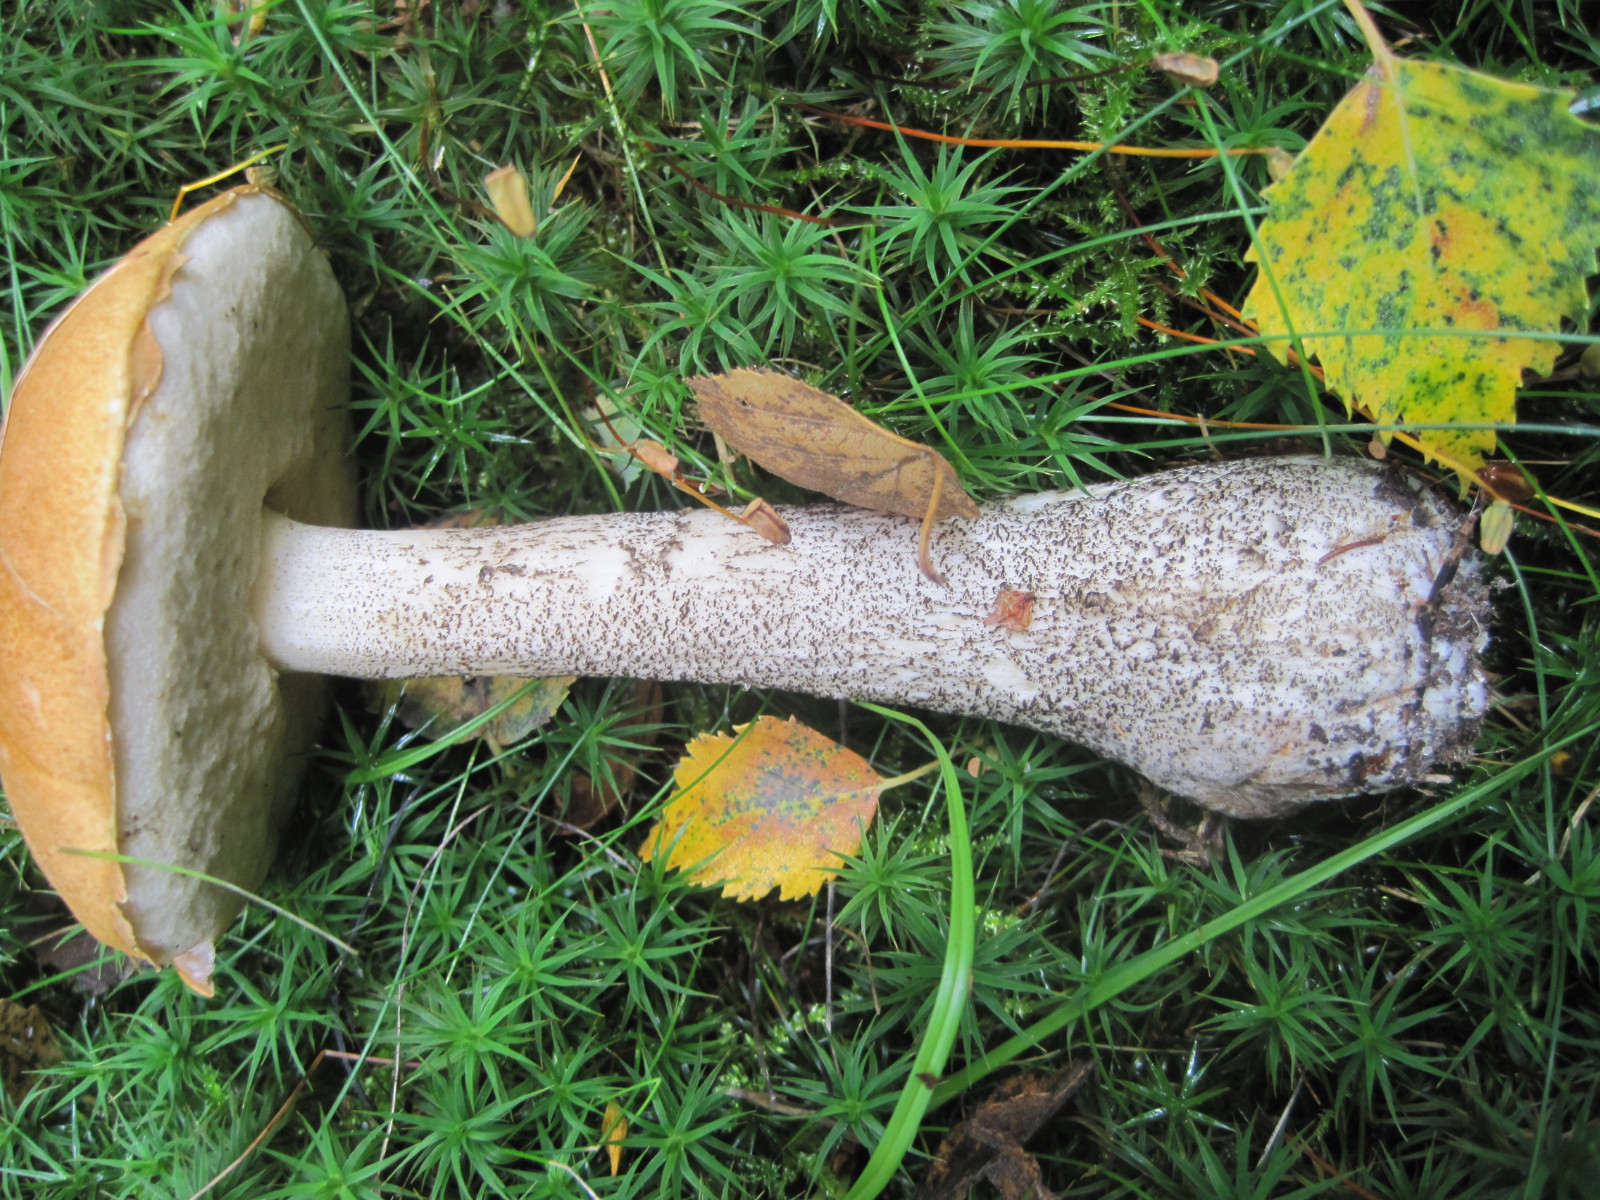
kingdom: Fungi
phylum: Basidiomycota
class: Agaricomycetes
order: Boletales
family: Boletaceae
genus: Leccinum
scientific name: Leccinum versipelle
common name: orange skælrørhat
